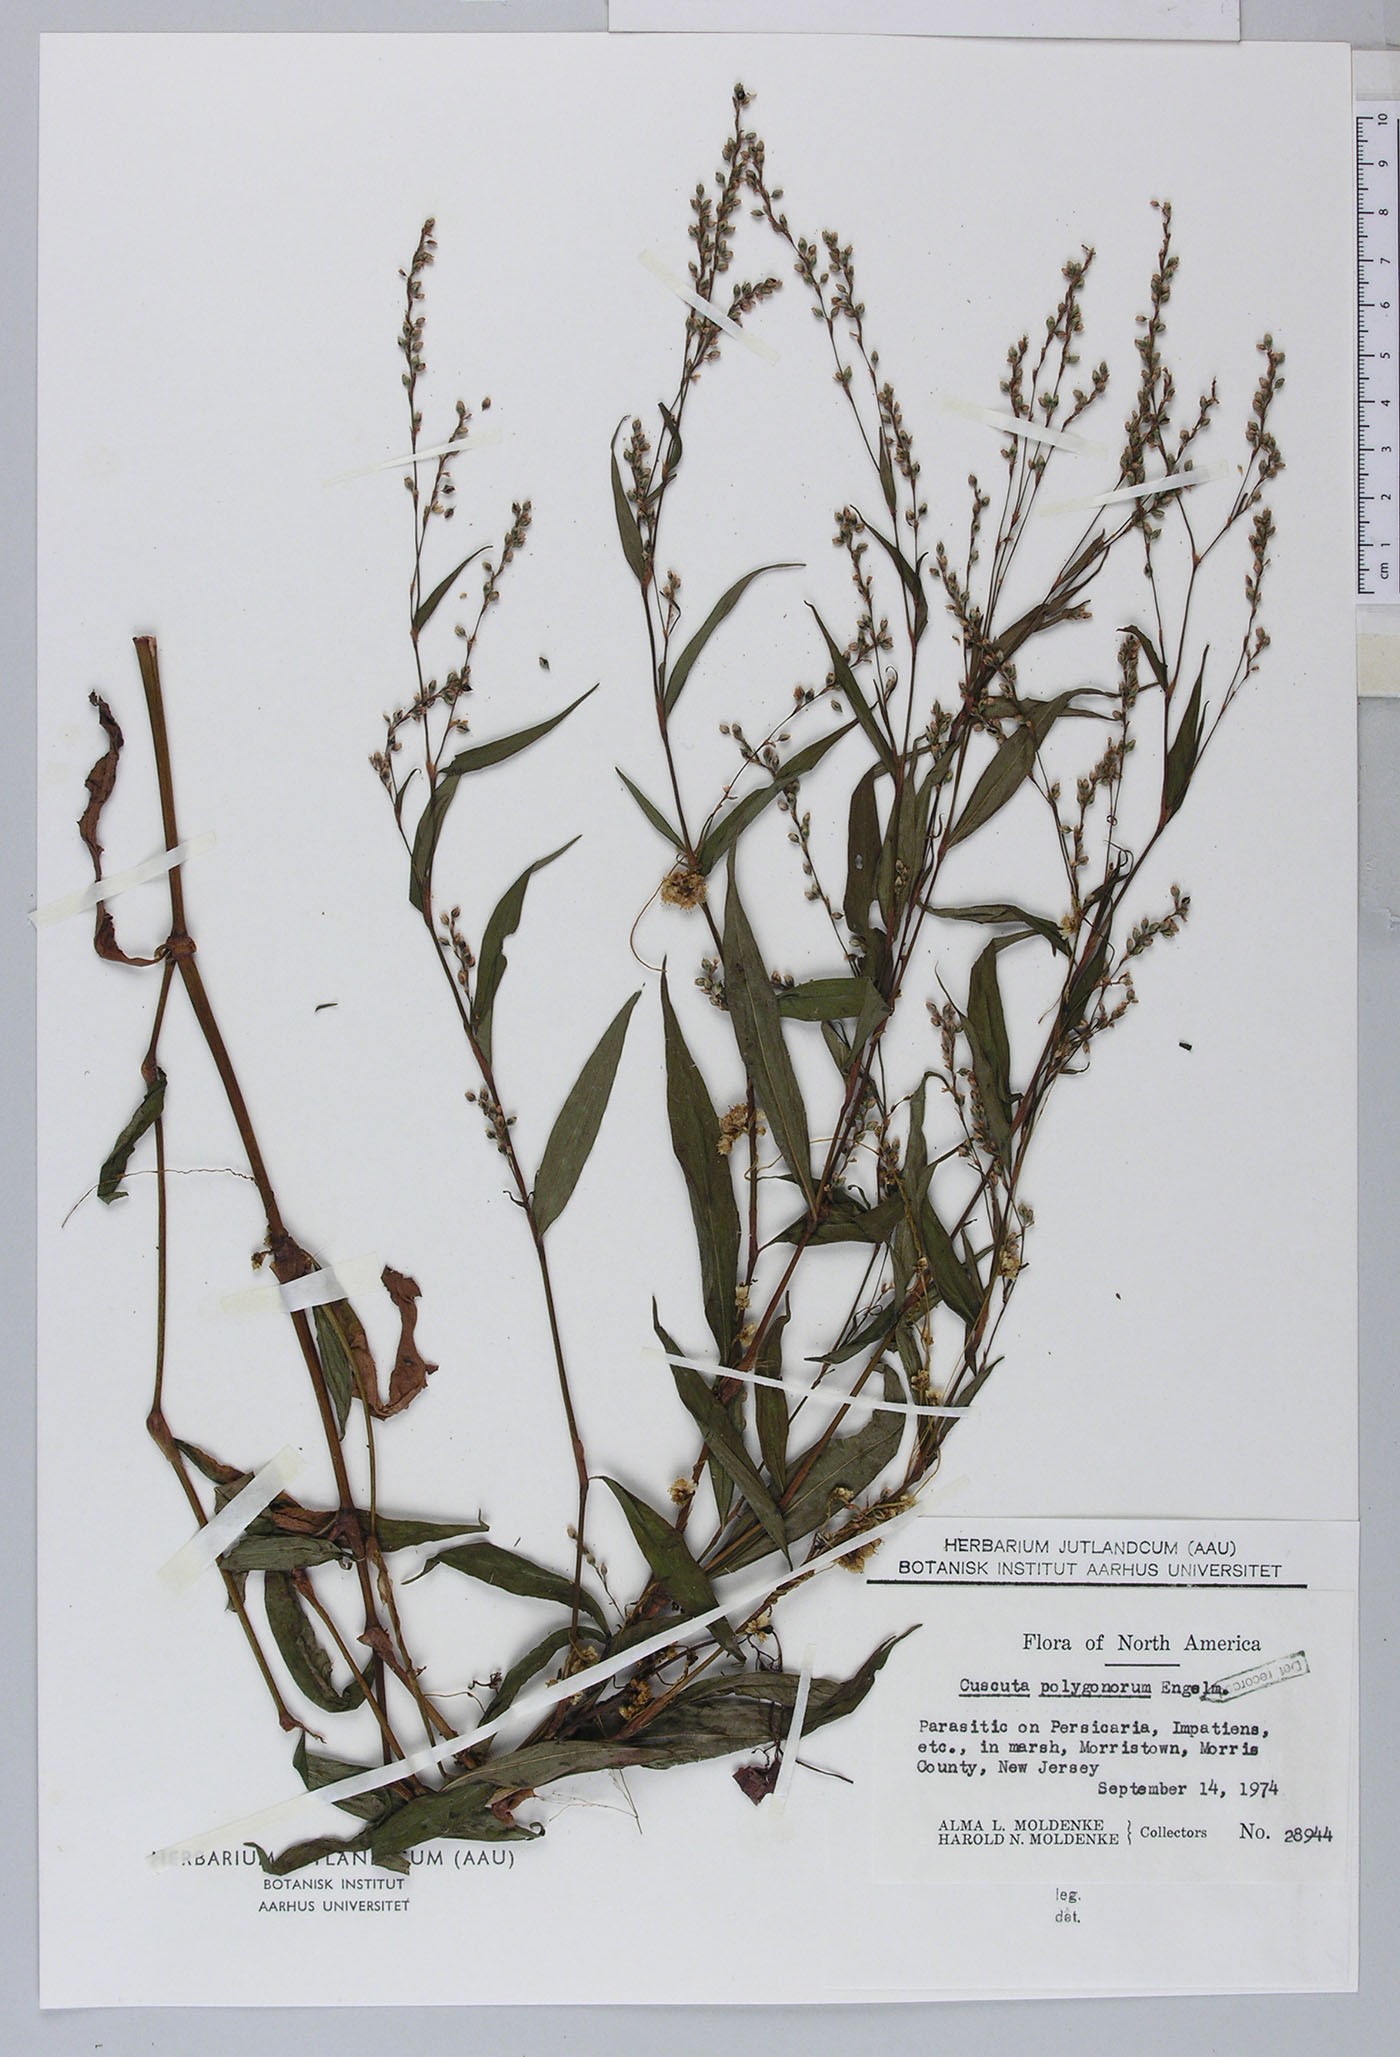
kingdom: Plantae
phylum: Tracheophyta
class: Magnoliopsida
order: Solanales
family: Convolvulaceae
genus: Cuscuta
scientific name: Cuscuta gronovii
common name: Common dodder
